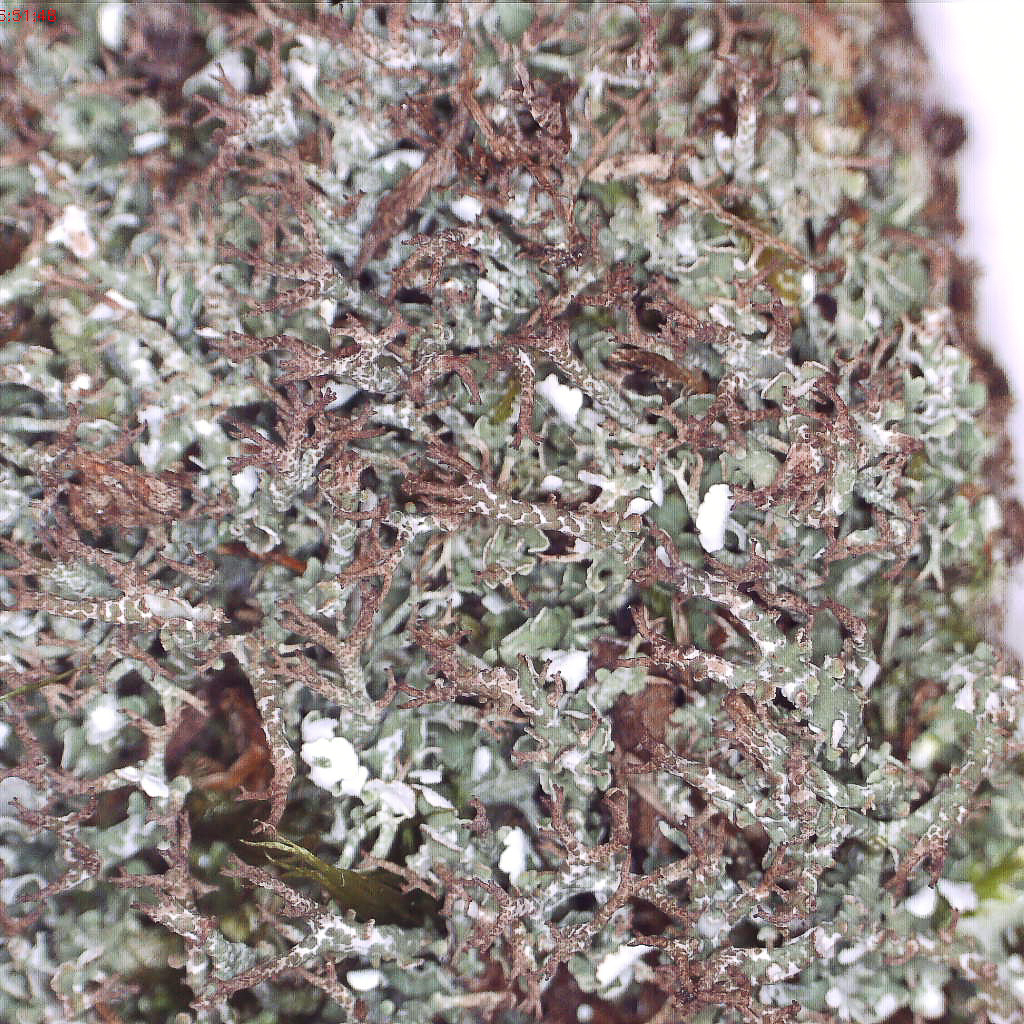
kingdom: Fungi
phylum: Ascomycota
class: Lecanoromycetes
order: Lecanorales
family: Cladoniaceae
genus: Cladonia
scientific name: Cladonia rangiformis
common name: spættet bægerlav
